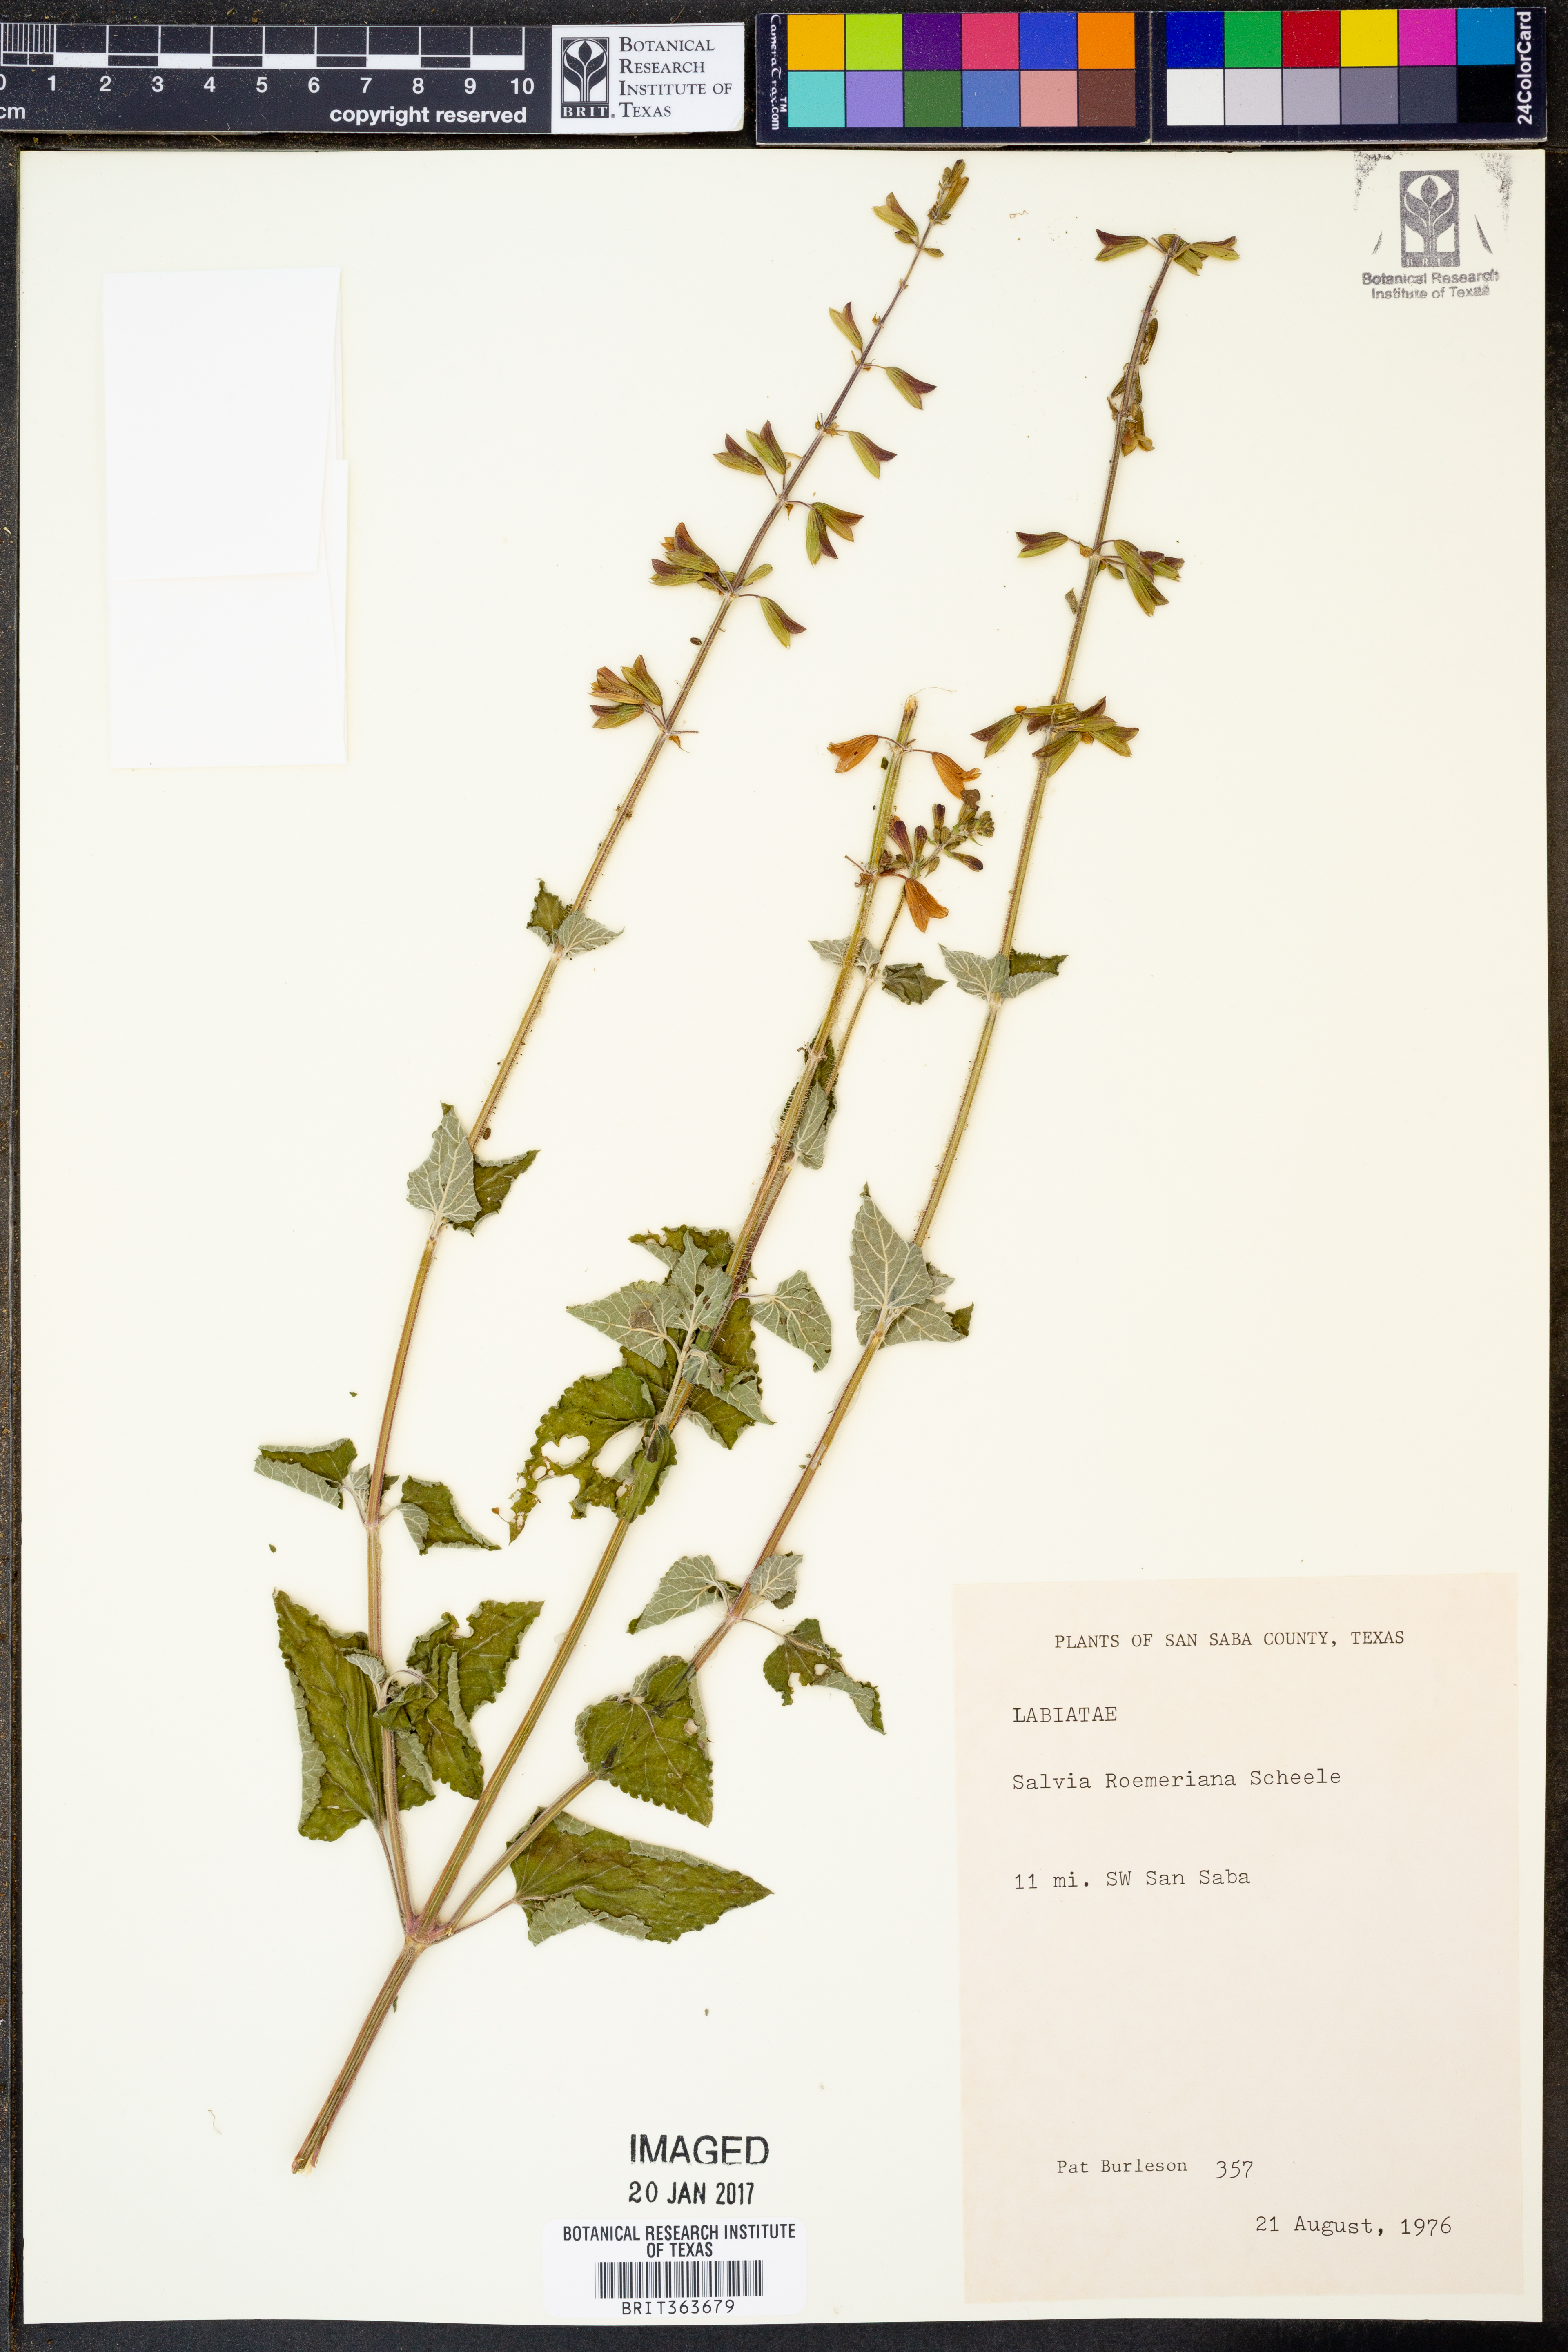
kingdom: Plantae
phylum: Tracheophyta
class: Magnoliopsida
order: Lamiales
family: Lamiaceae
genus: Salvia
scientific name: Salvia roemeriana
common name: Cedar sage
